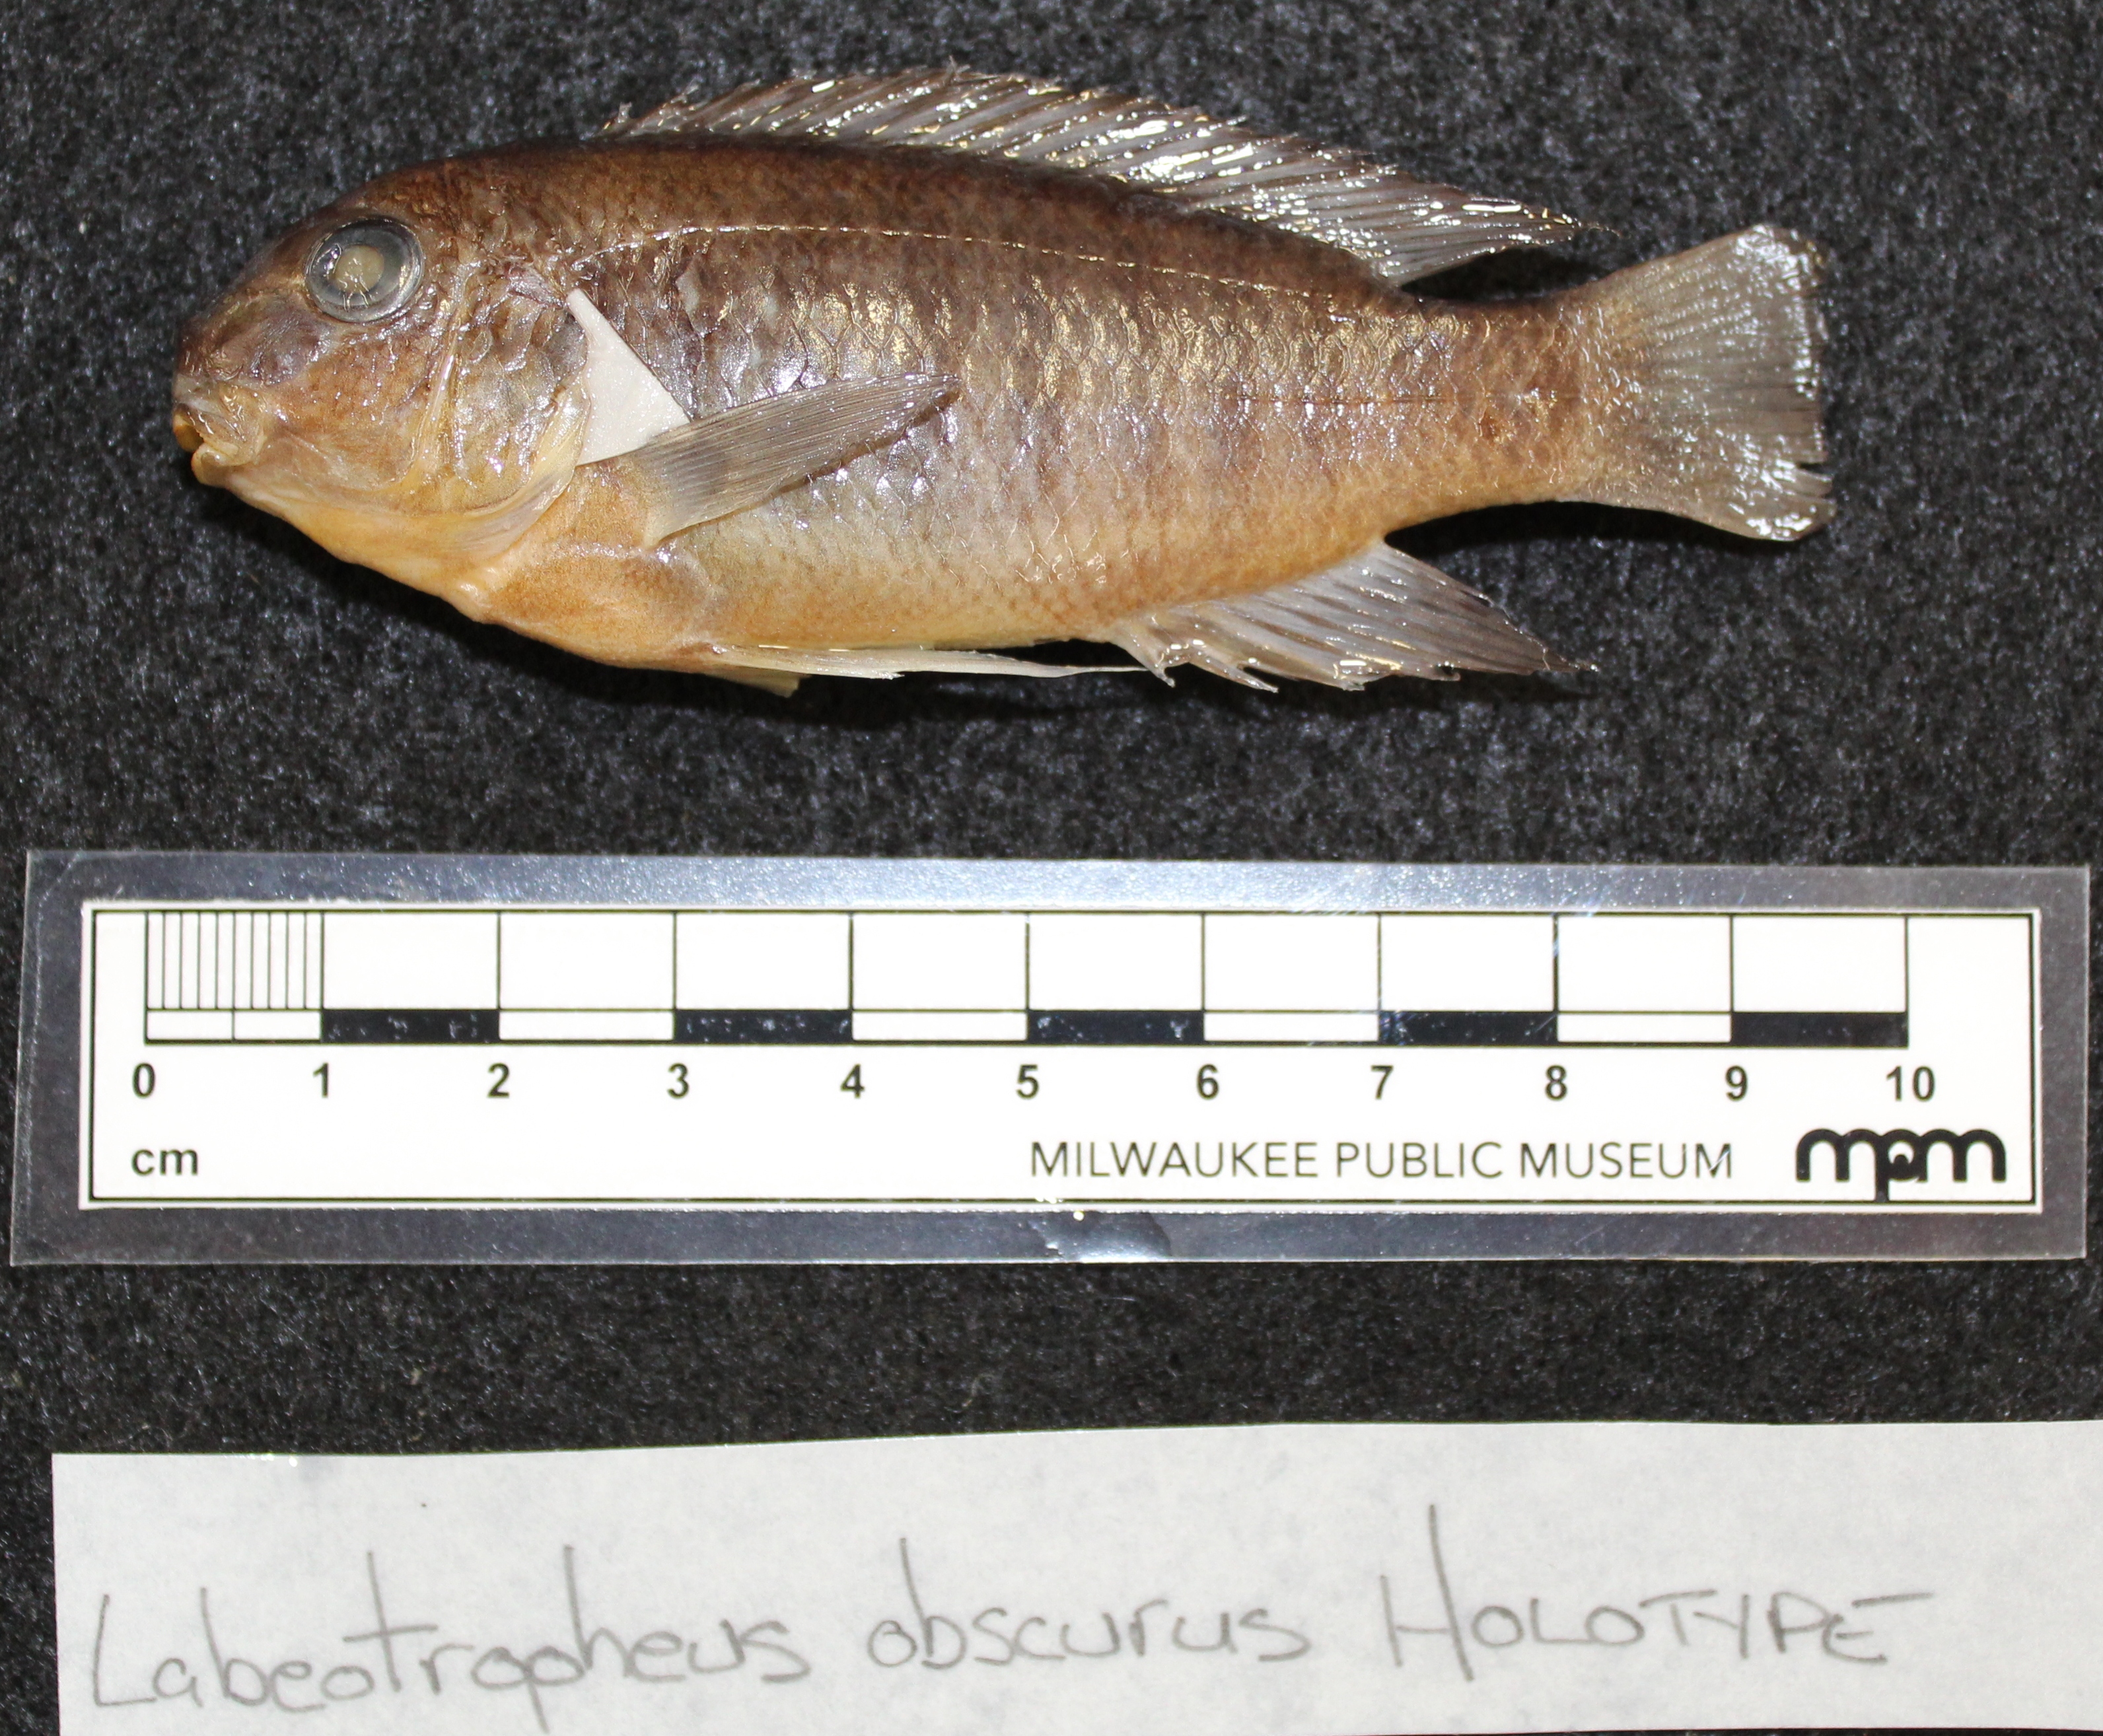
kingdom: Animalia
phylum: Chordata
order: Perciformes
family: Cichlidae
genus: Labeotropheus
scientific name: Labeotropheus
